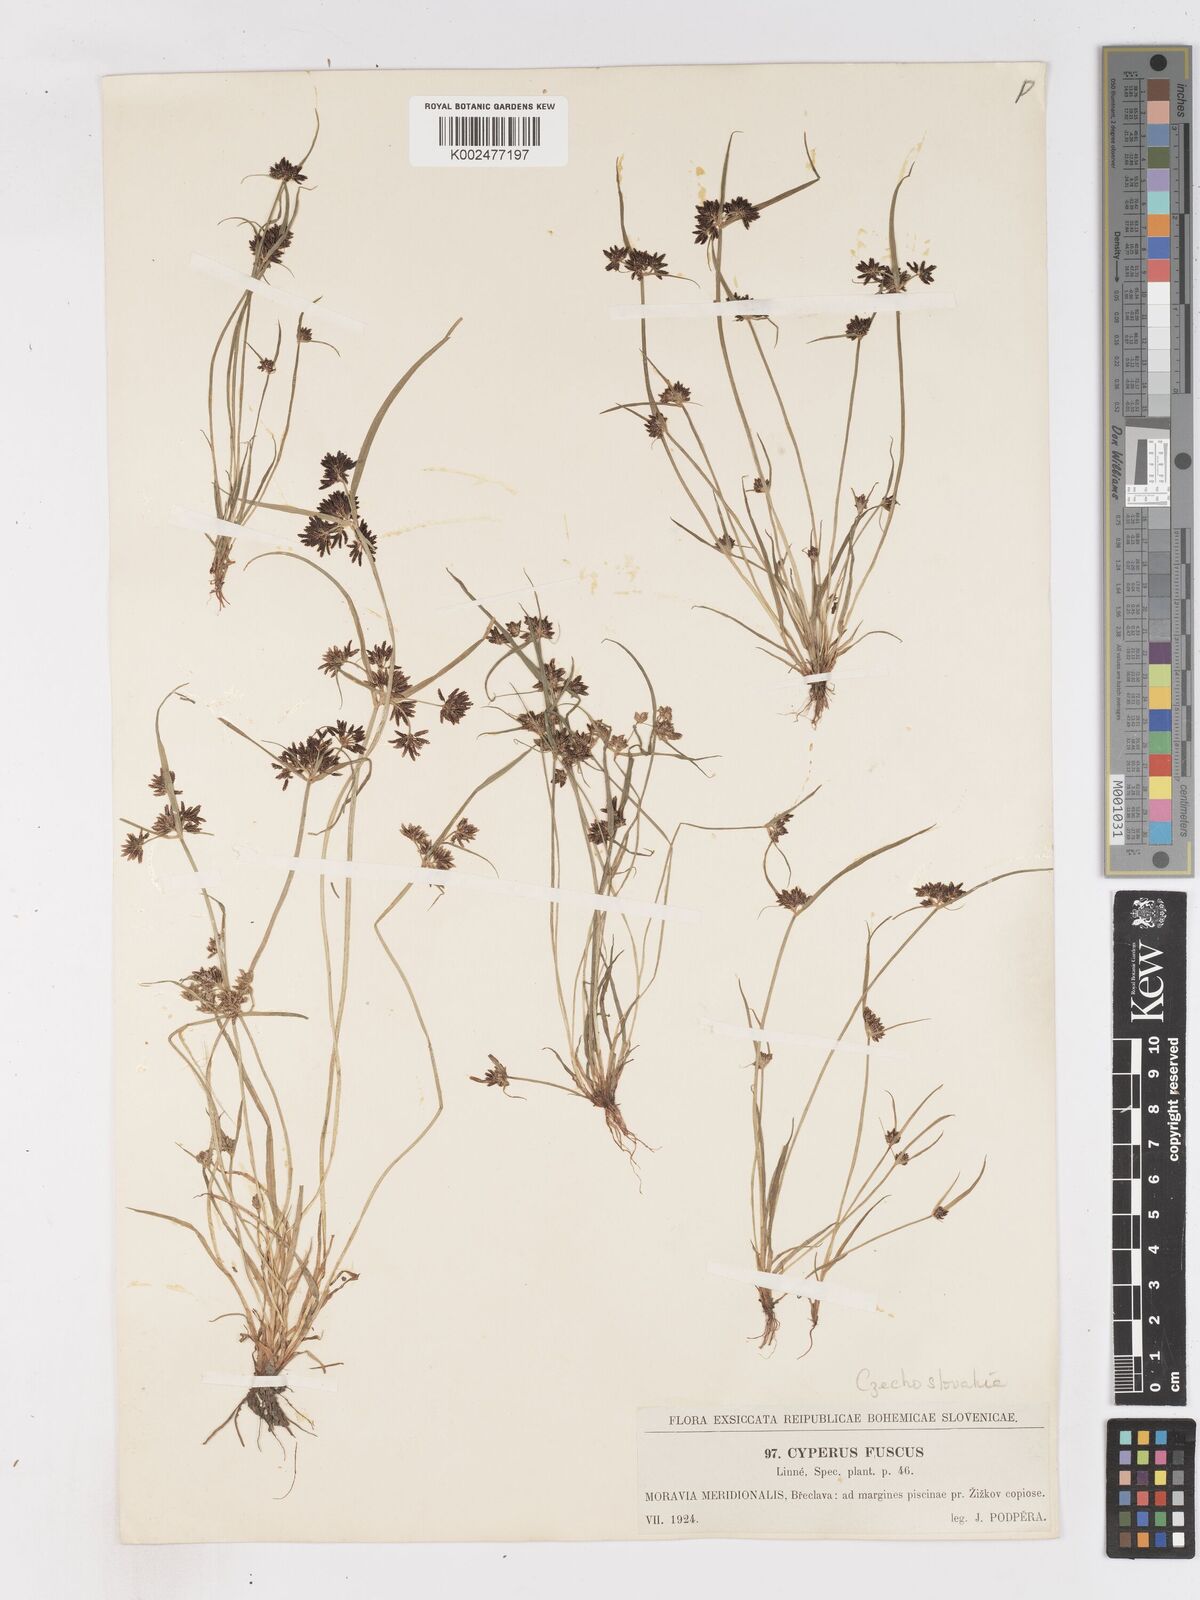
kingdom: Plantae
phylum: Tracheophyta
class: Liliopsida
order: Poales
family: Cyperaceae
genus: Cyperus
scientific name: Cyperus fuscus
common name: Brown galingale
